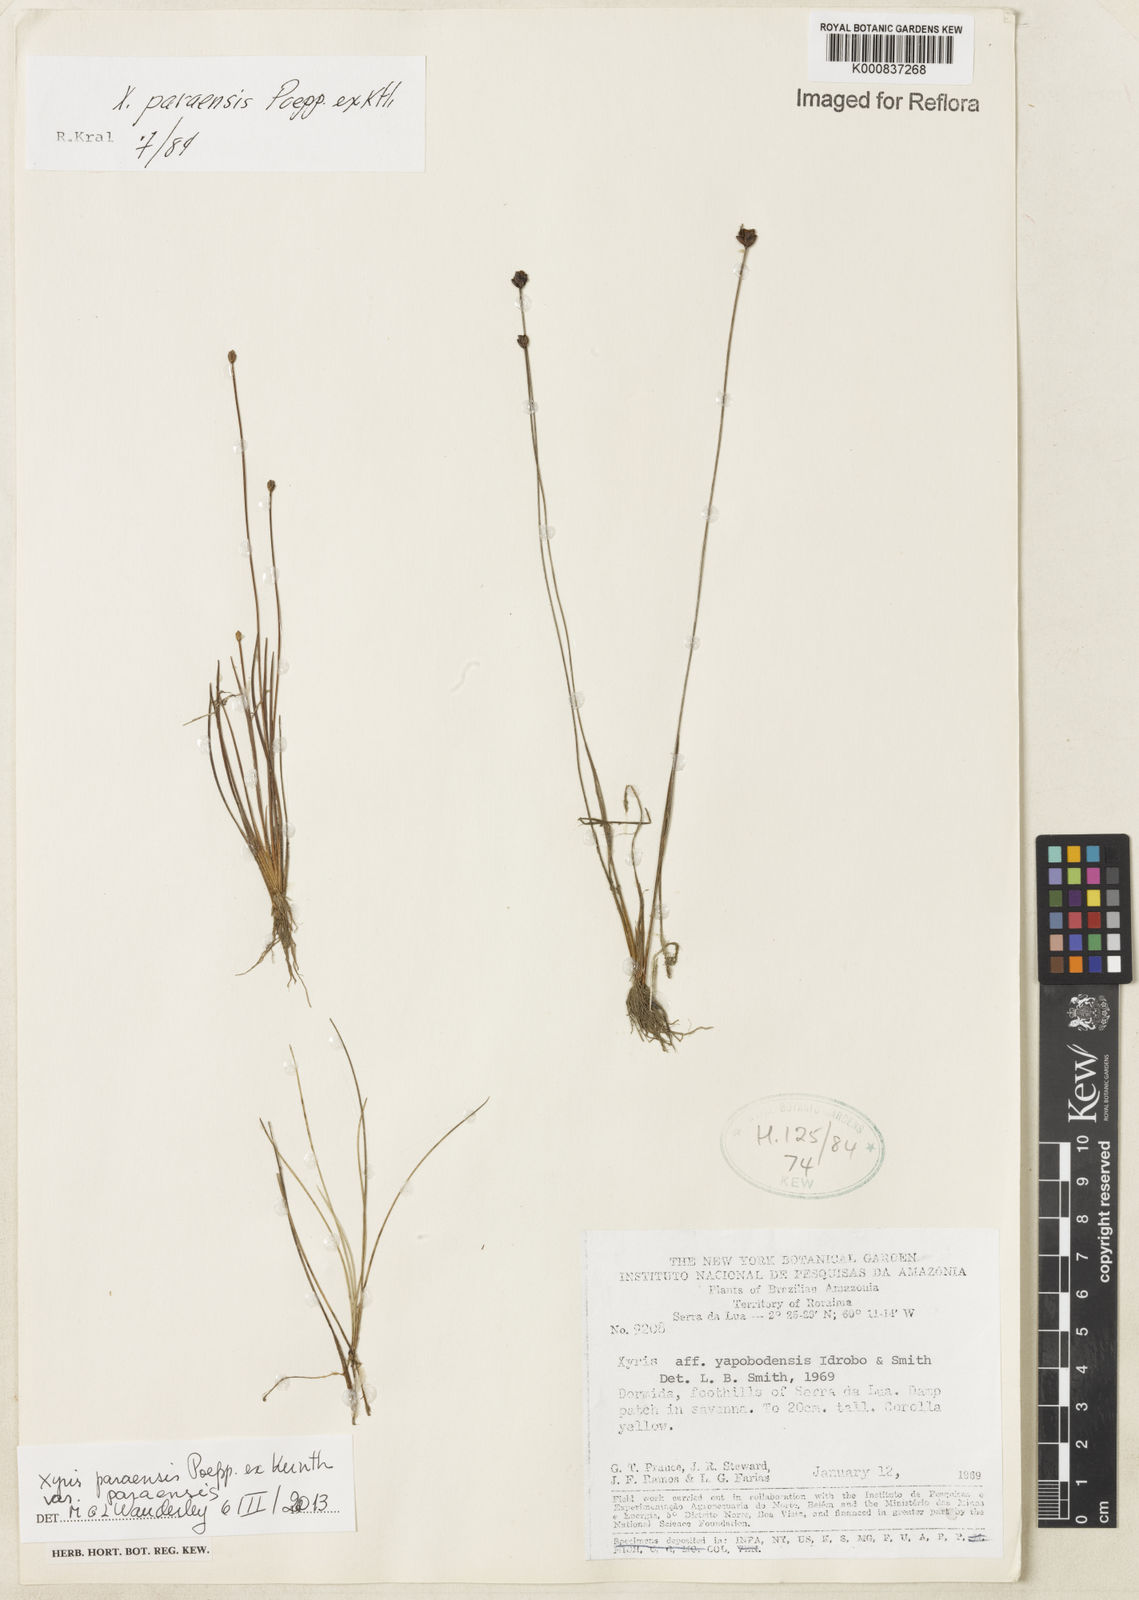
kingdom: Plantae
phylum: Tracheophyta
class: Liliopsida
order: Poales
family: Xyridaceae
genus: Xyris
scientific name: Xyris paraensis
